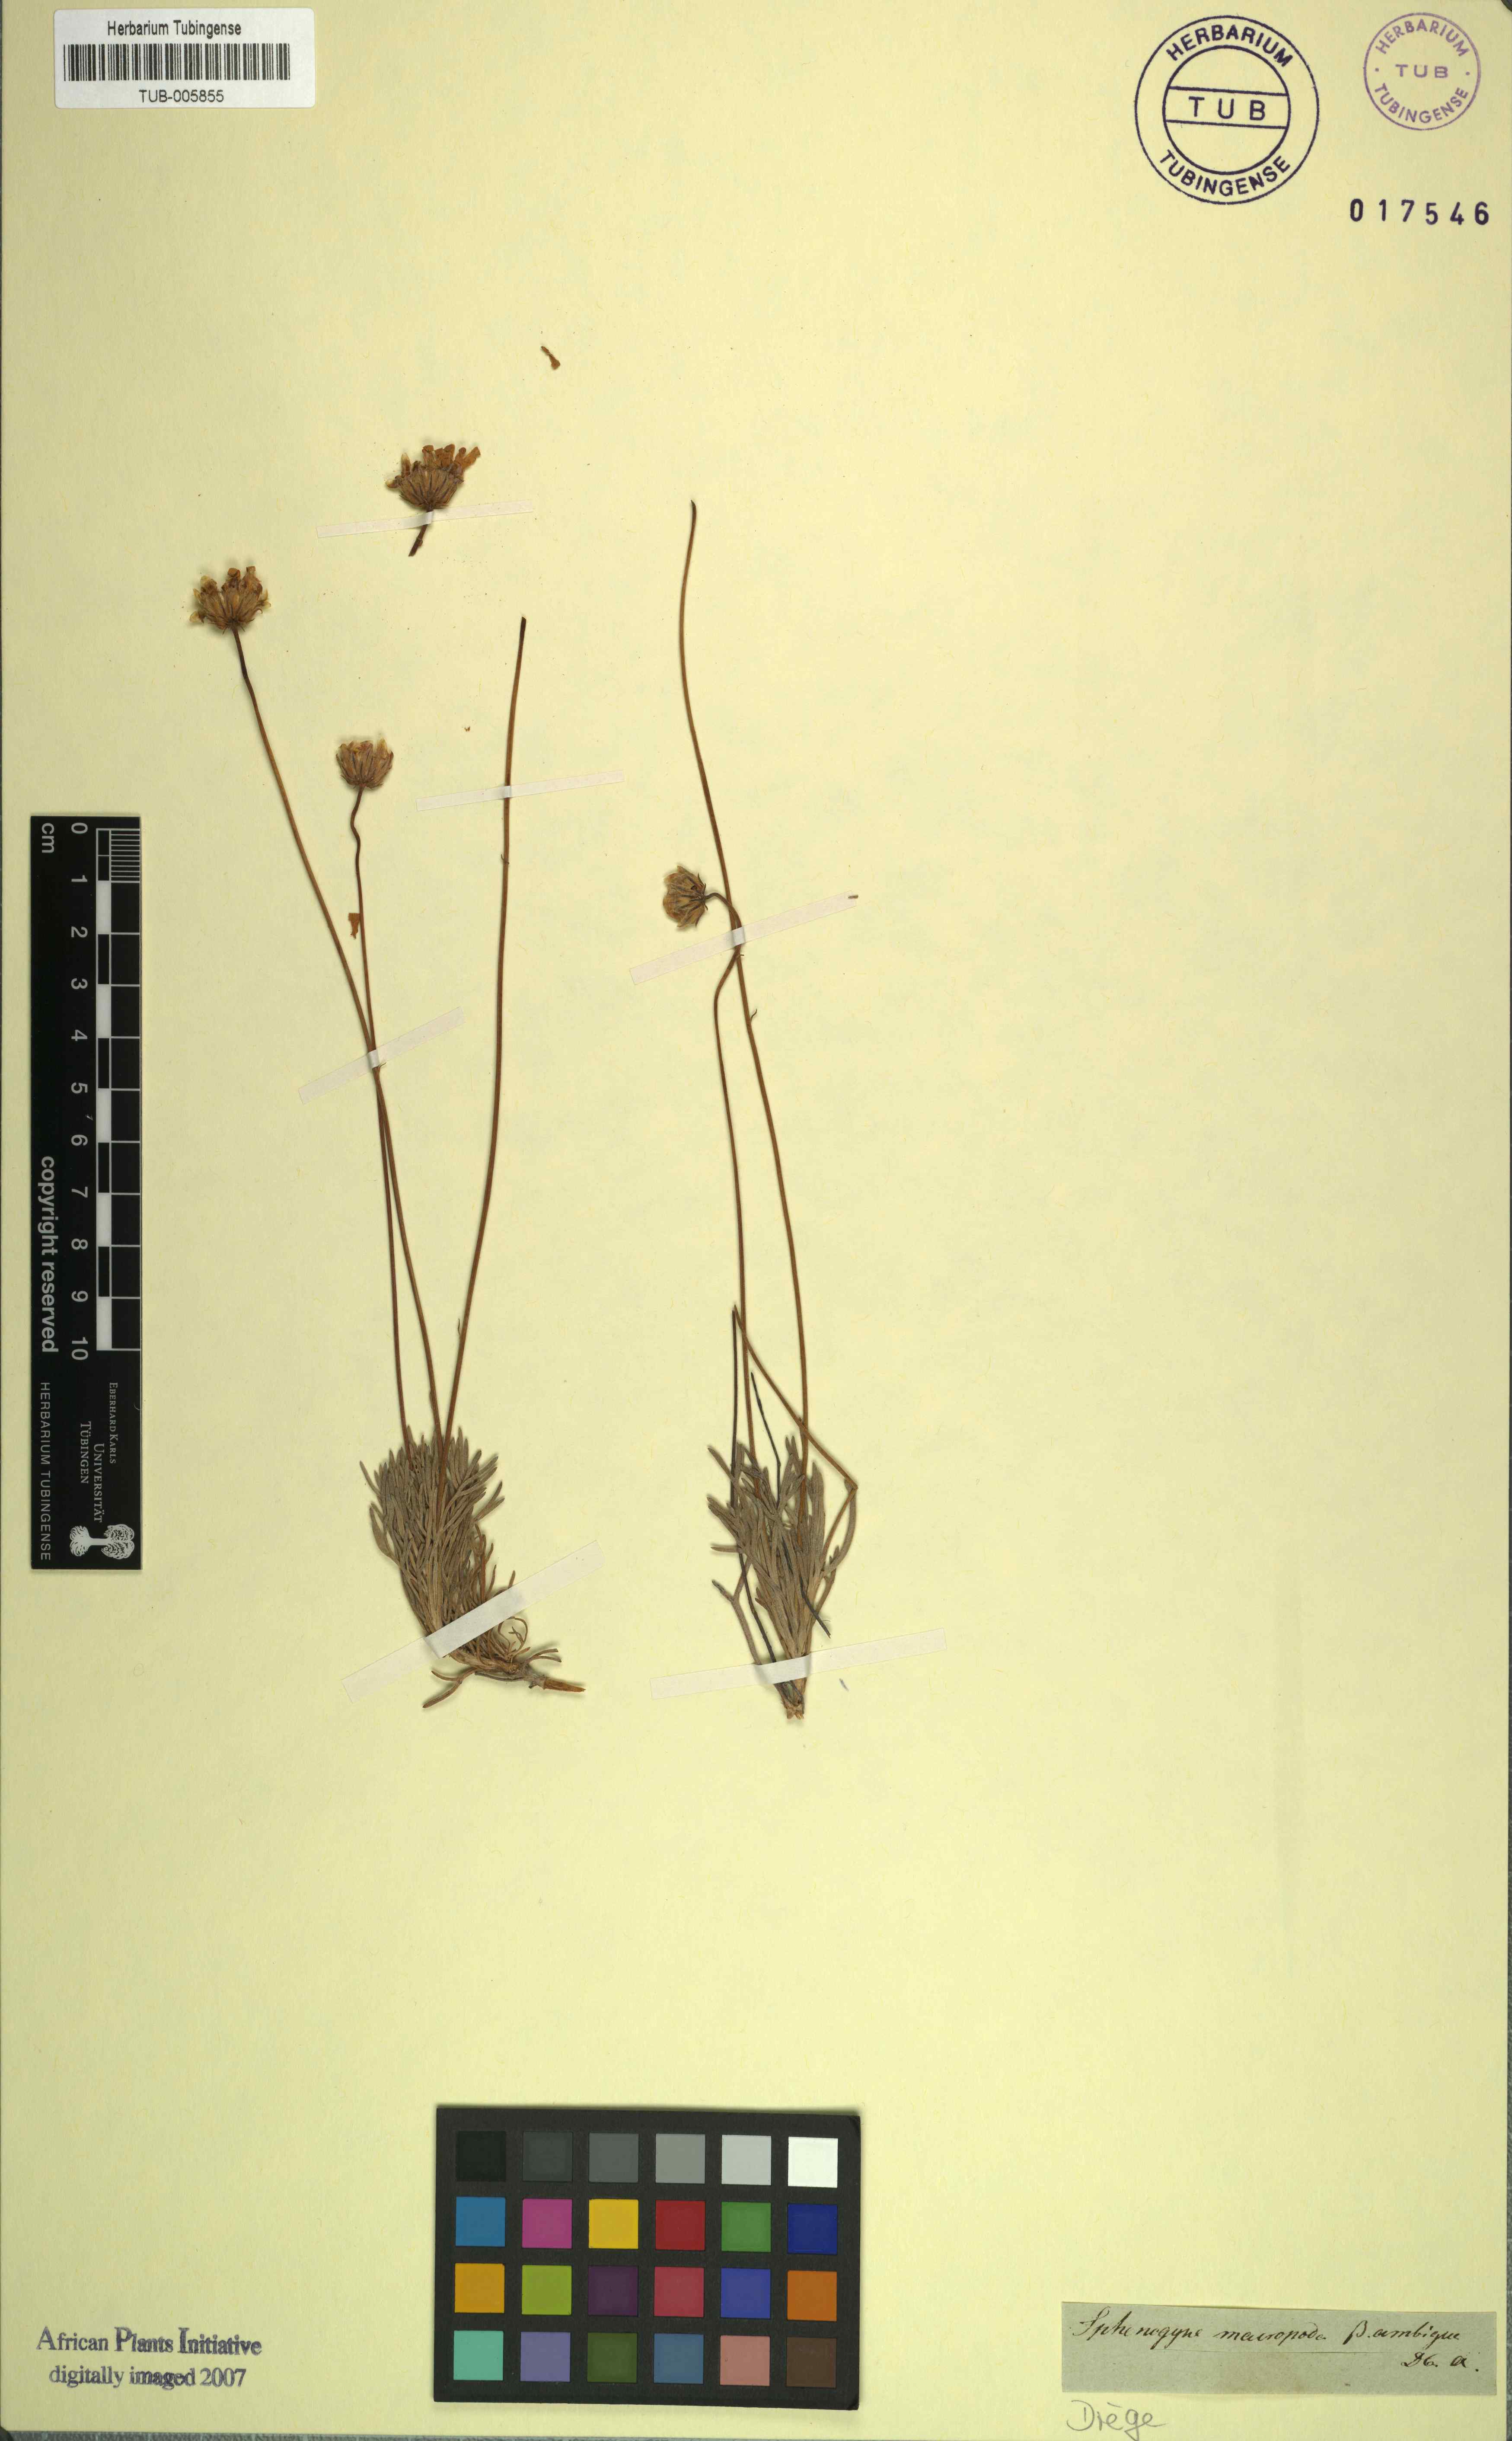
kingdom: Plantae
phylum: Tracheophyta
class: Magnoliopsida
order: Asterales
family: Asteraceae
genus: Ursinia
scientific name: Ursinia macropoda
